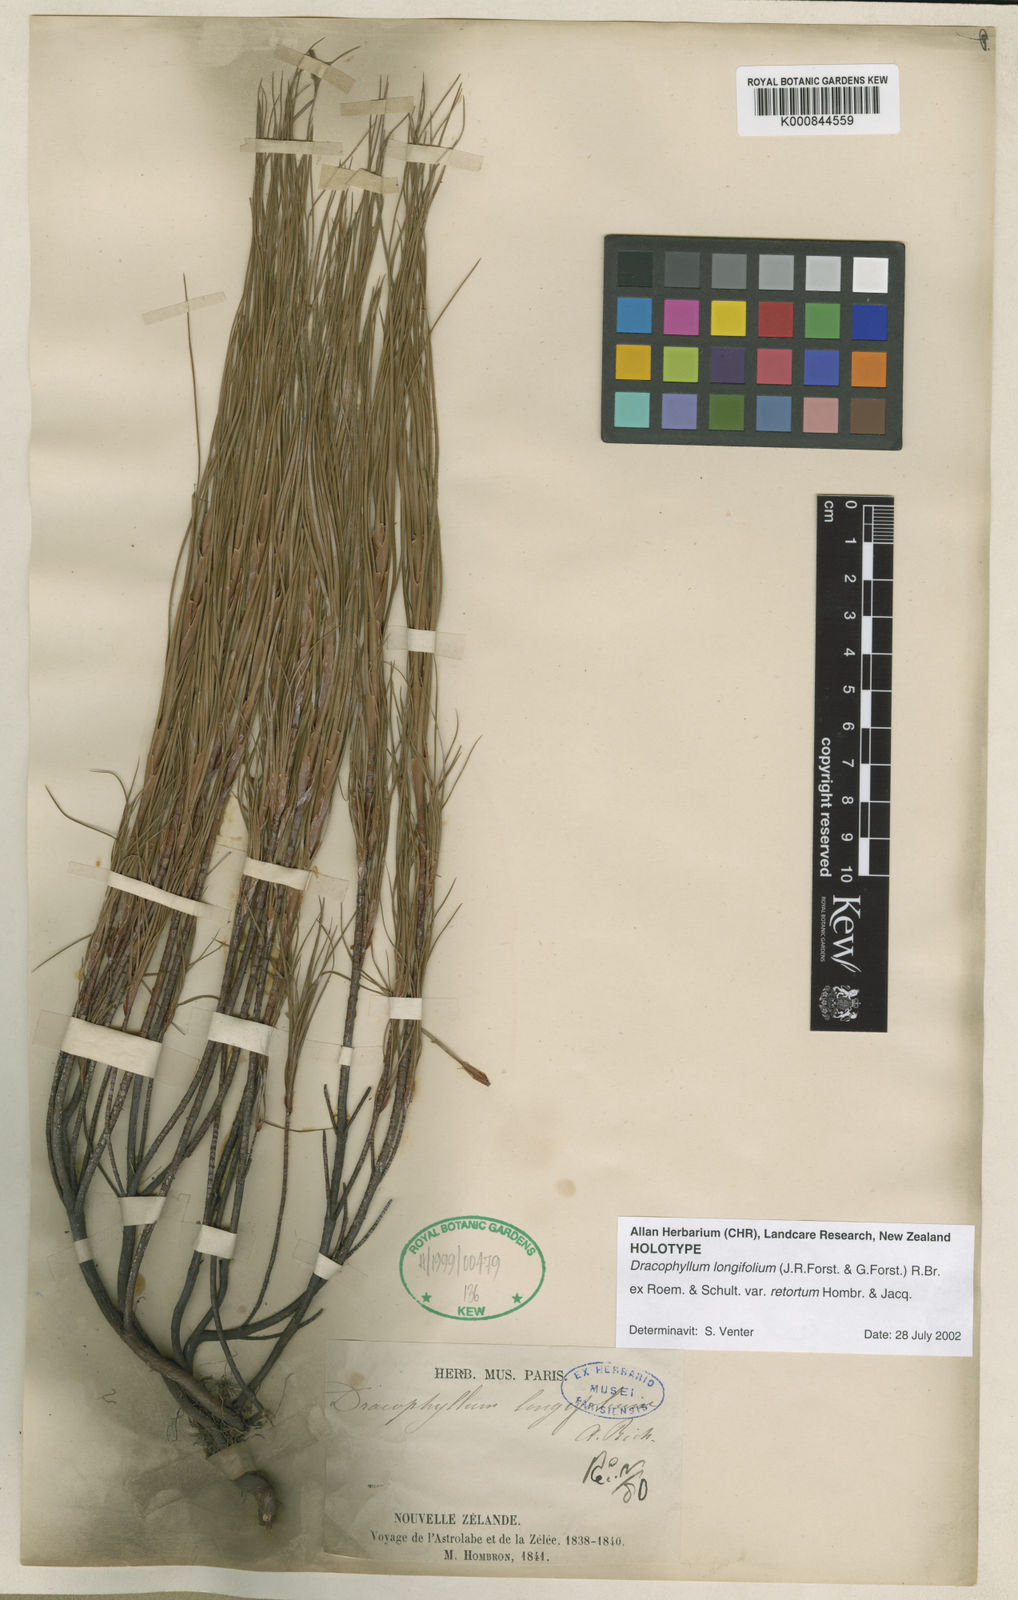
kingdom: Plantae
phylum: Tracheophyta
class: Magnoliopsida
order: Ericales
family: Ericaceae
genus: Dracophyllum
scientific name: Dracophyllum
